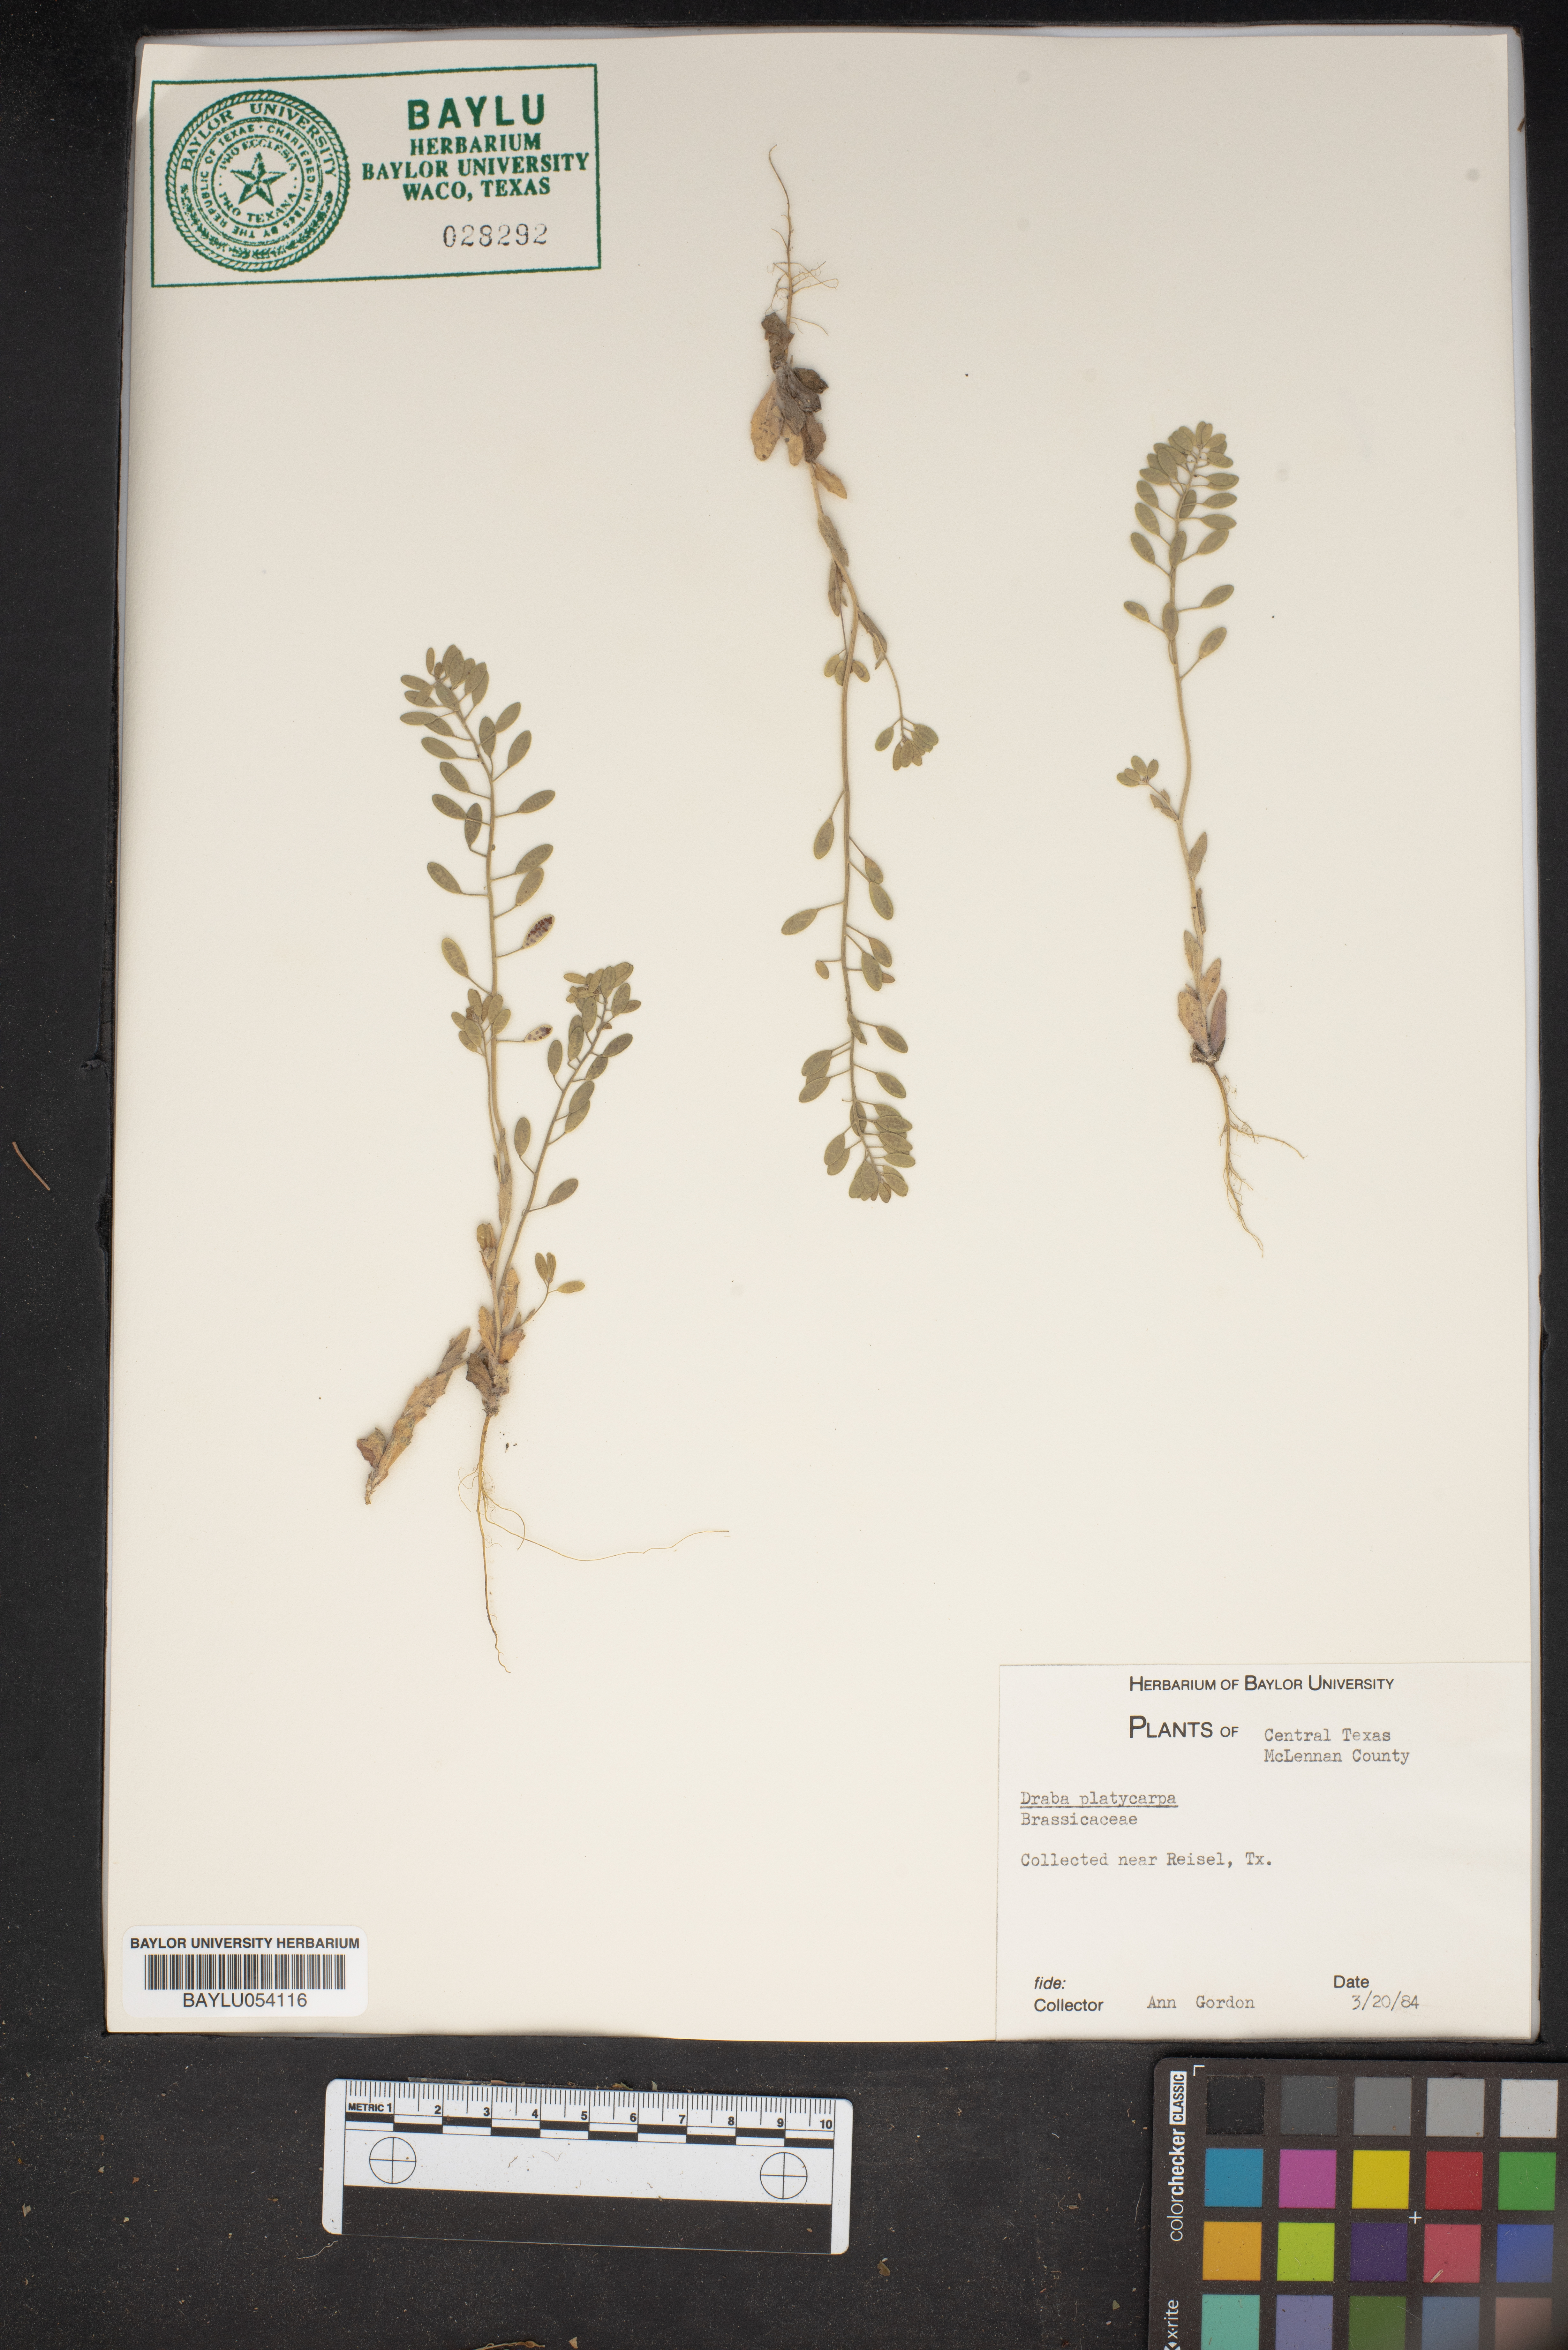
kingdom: Plantae
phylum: Tracheophyta
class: Magnoliopsida
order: Brassicales
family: Brassicaceae
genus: Tomostima
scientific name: Tomostima platycarpa
